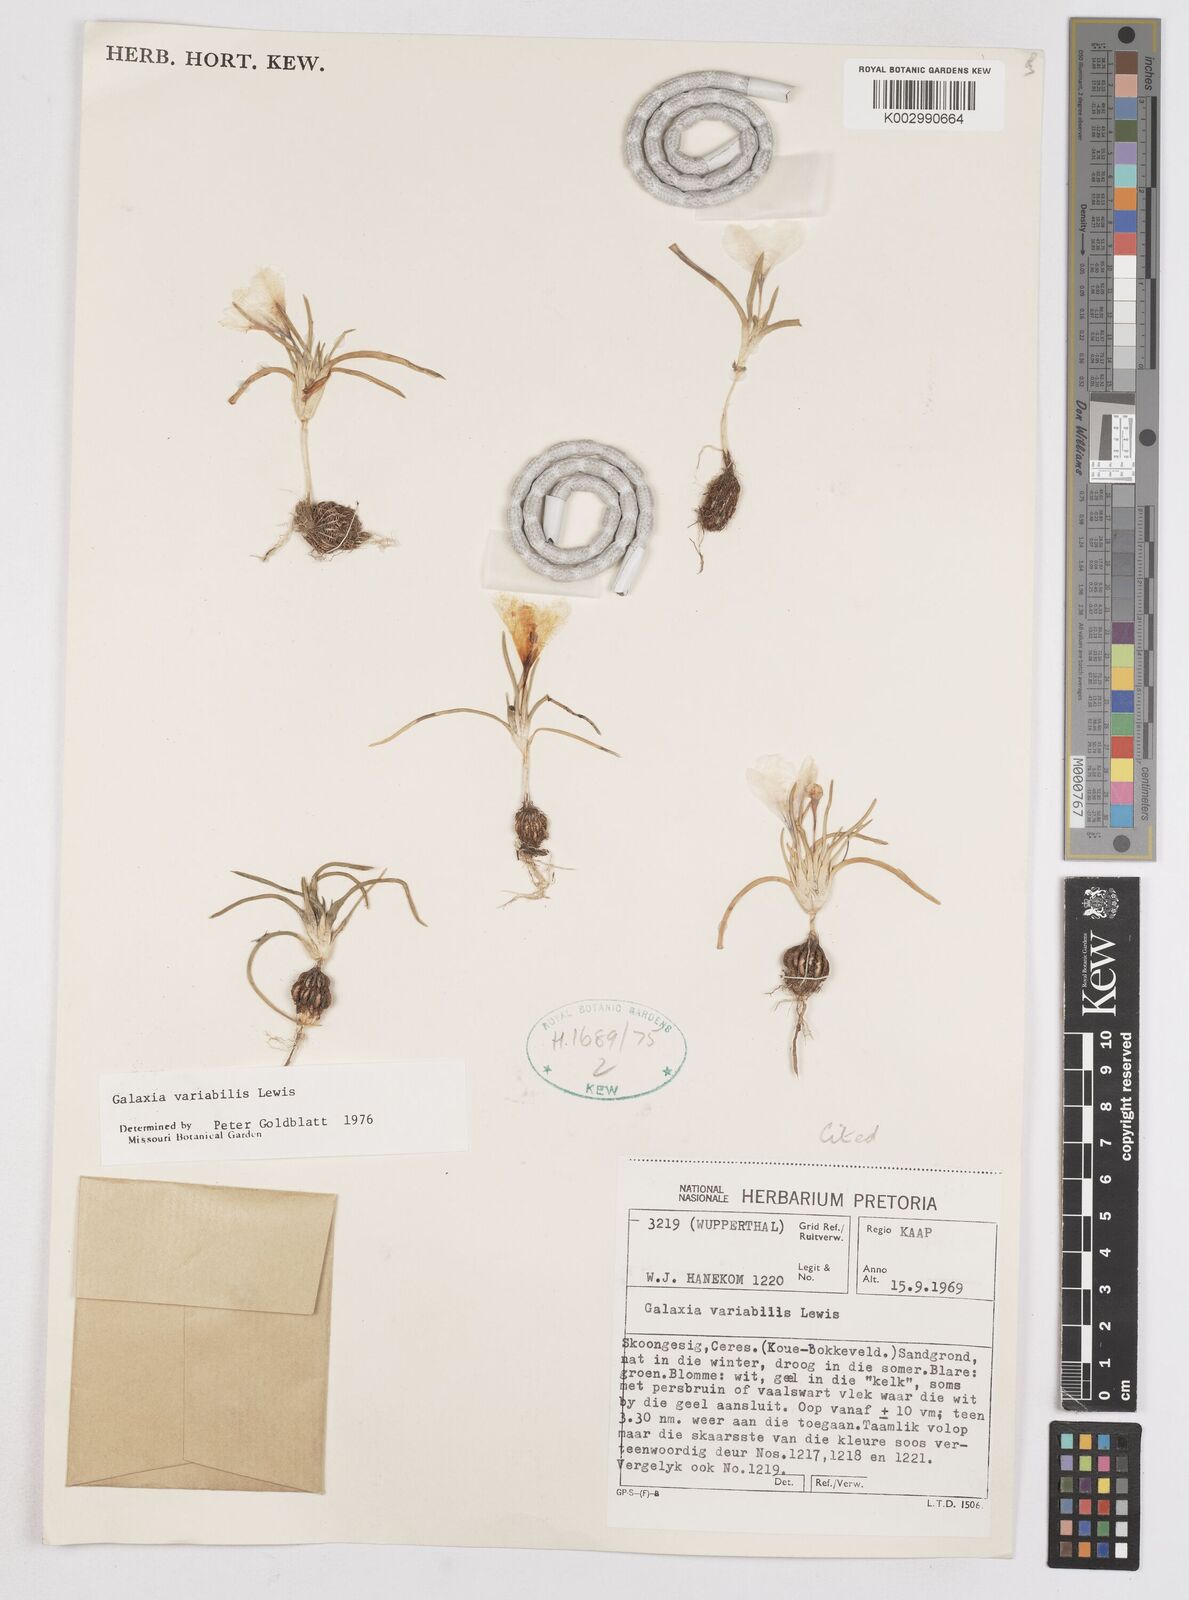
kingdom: Plantae
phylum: Tracheophyta
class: Liliopsida
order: Asparagales
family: Iridaceae
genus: Moraea
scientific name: Moraea variabilis
